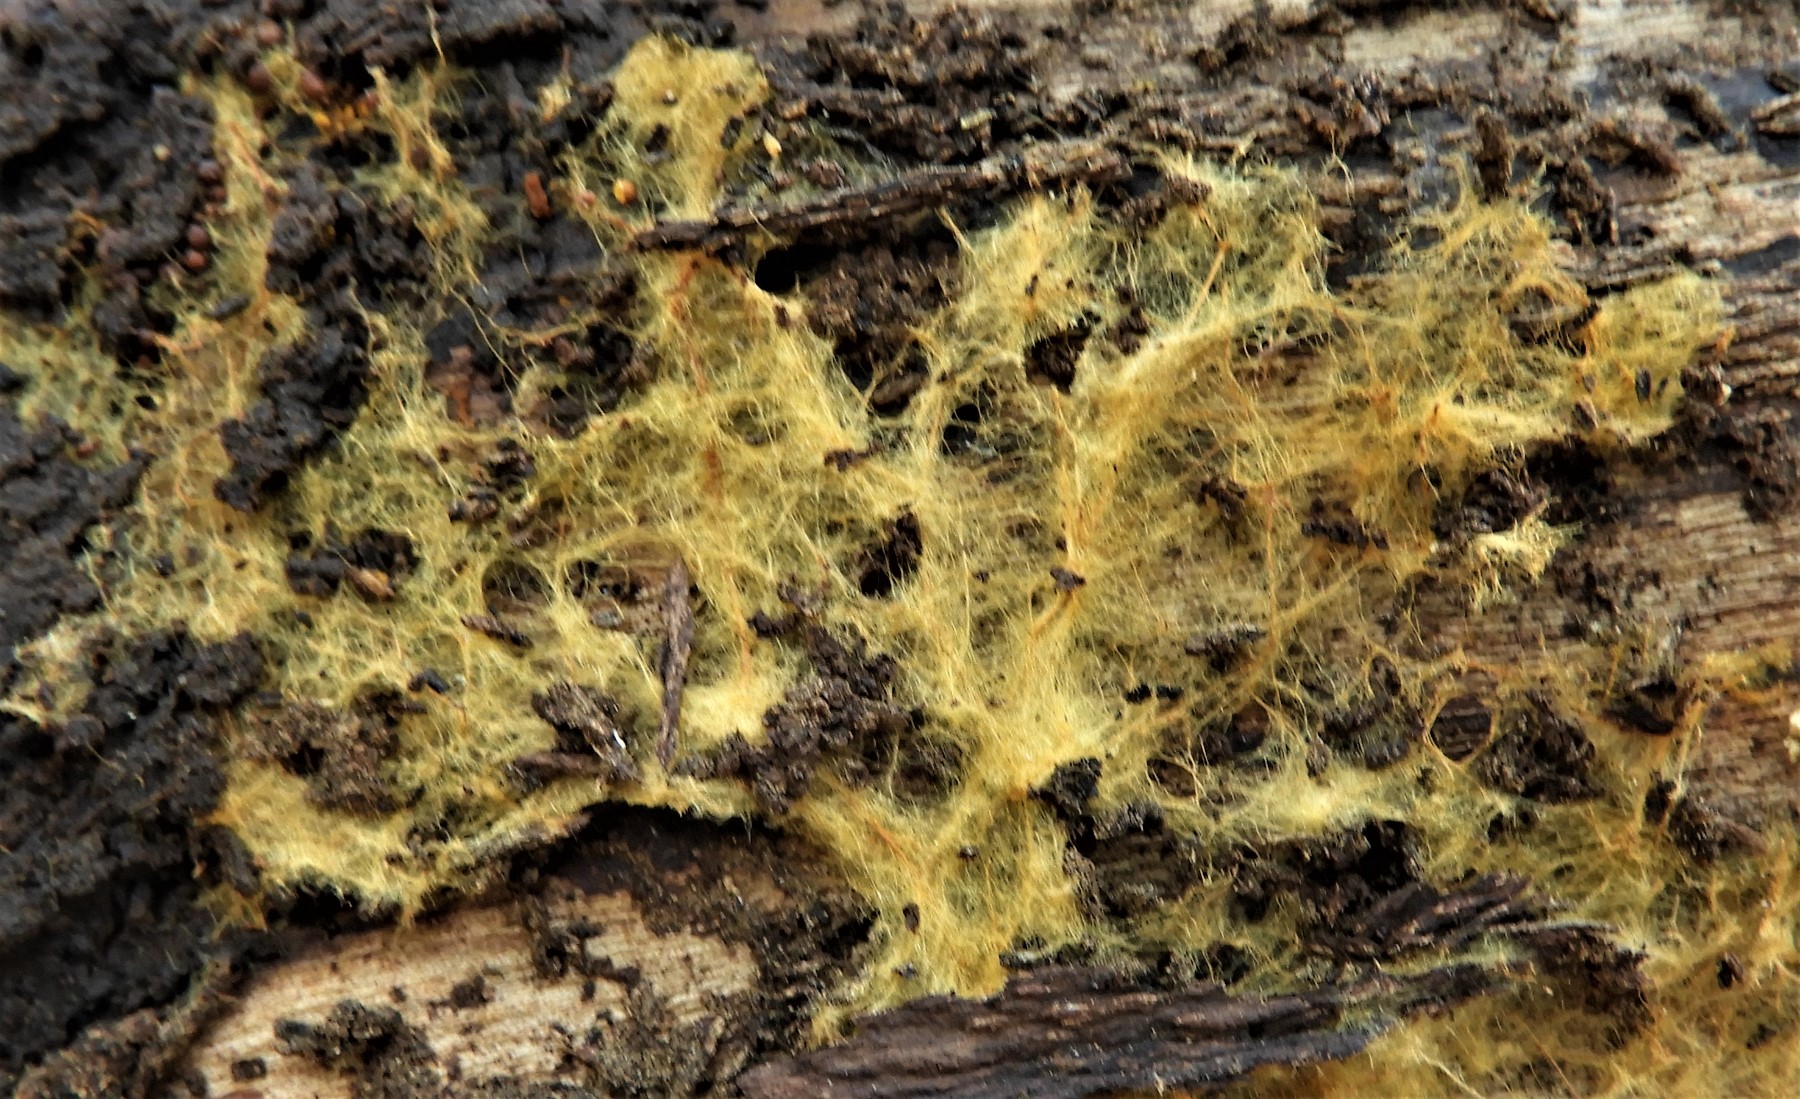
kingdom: Fungi
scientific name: Fungi
